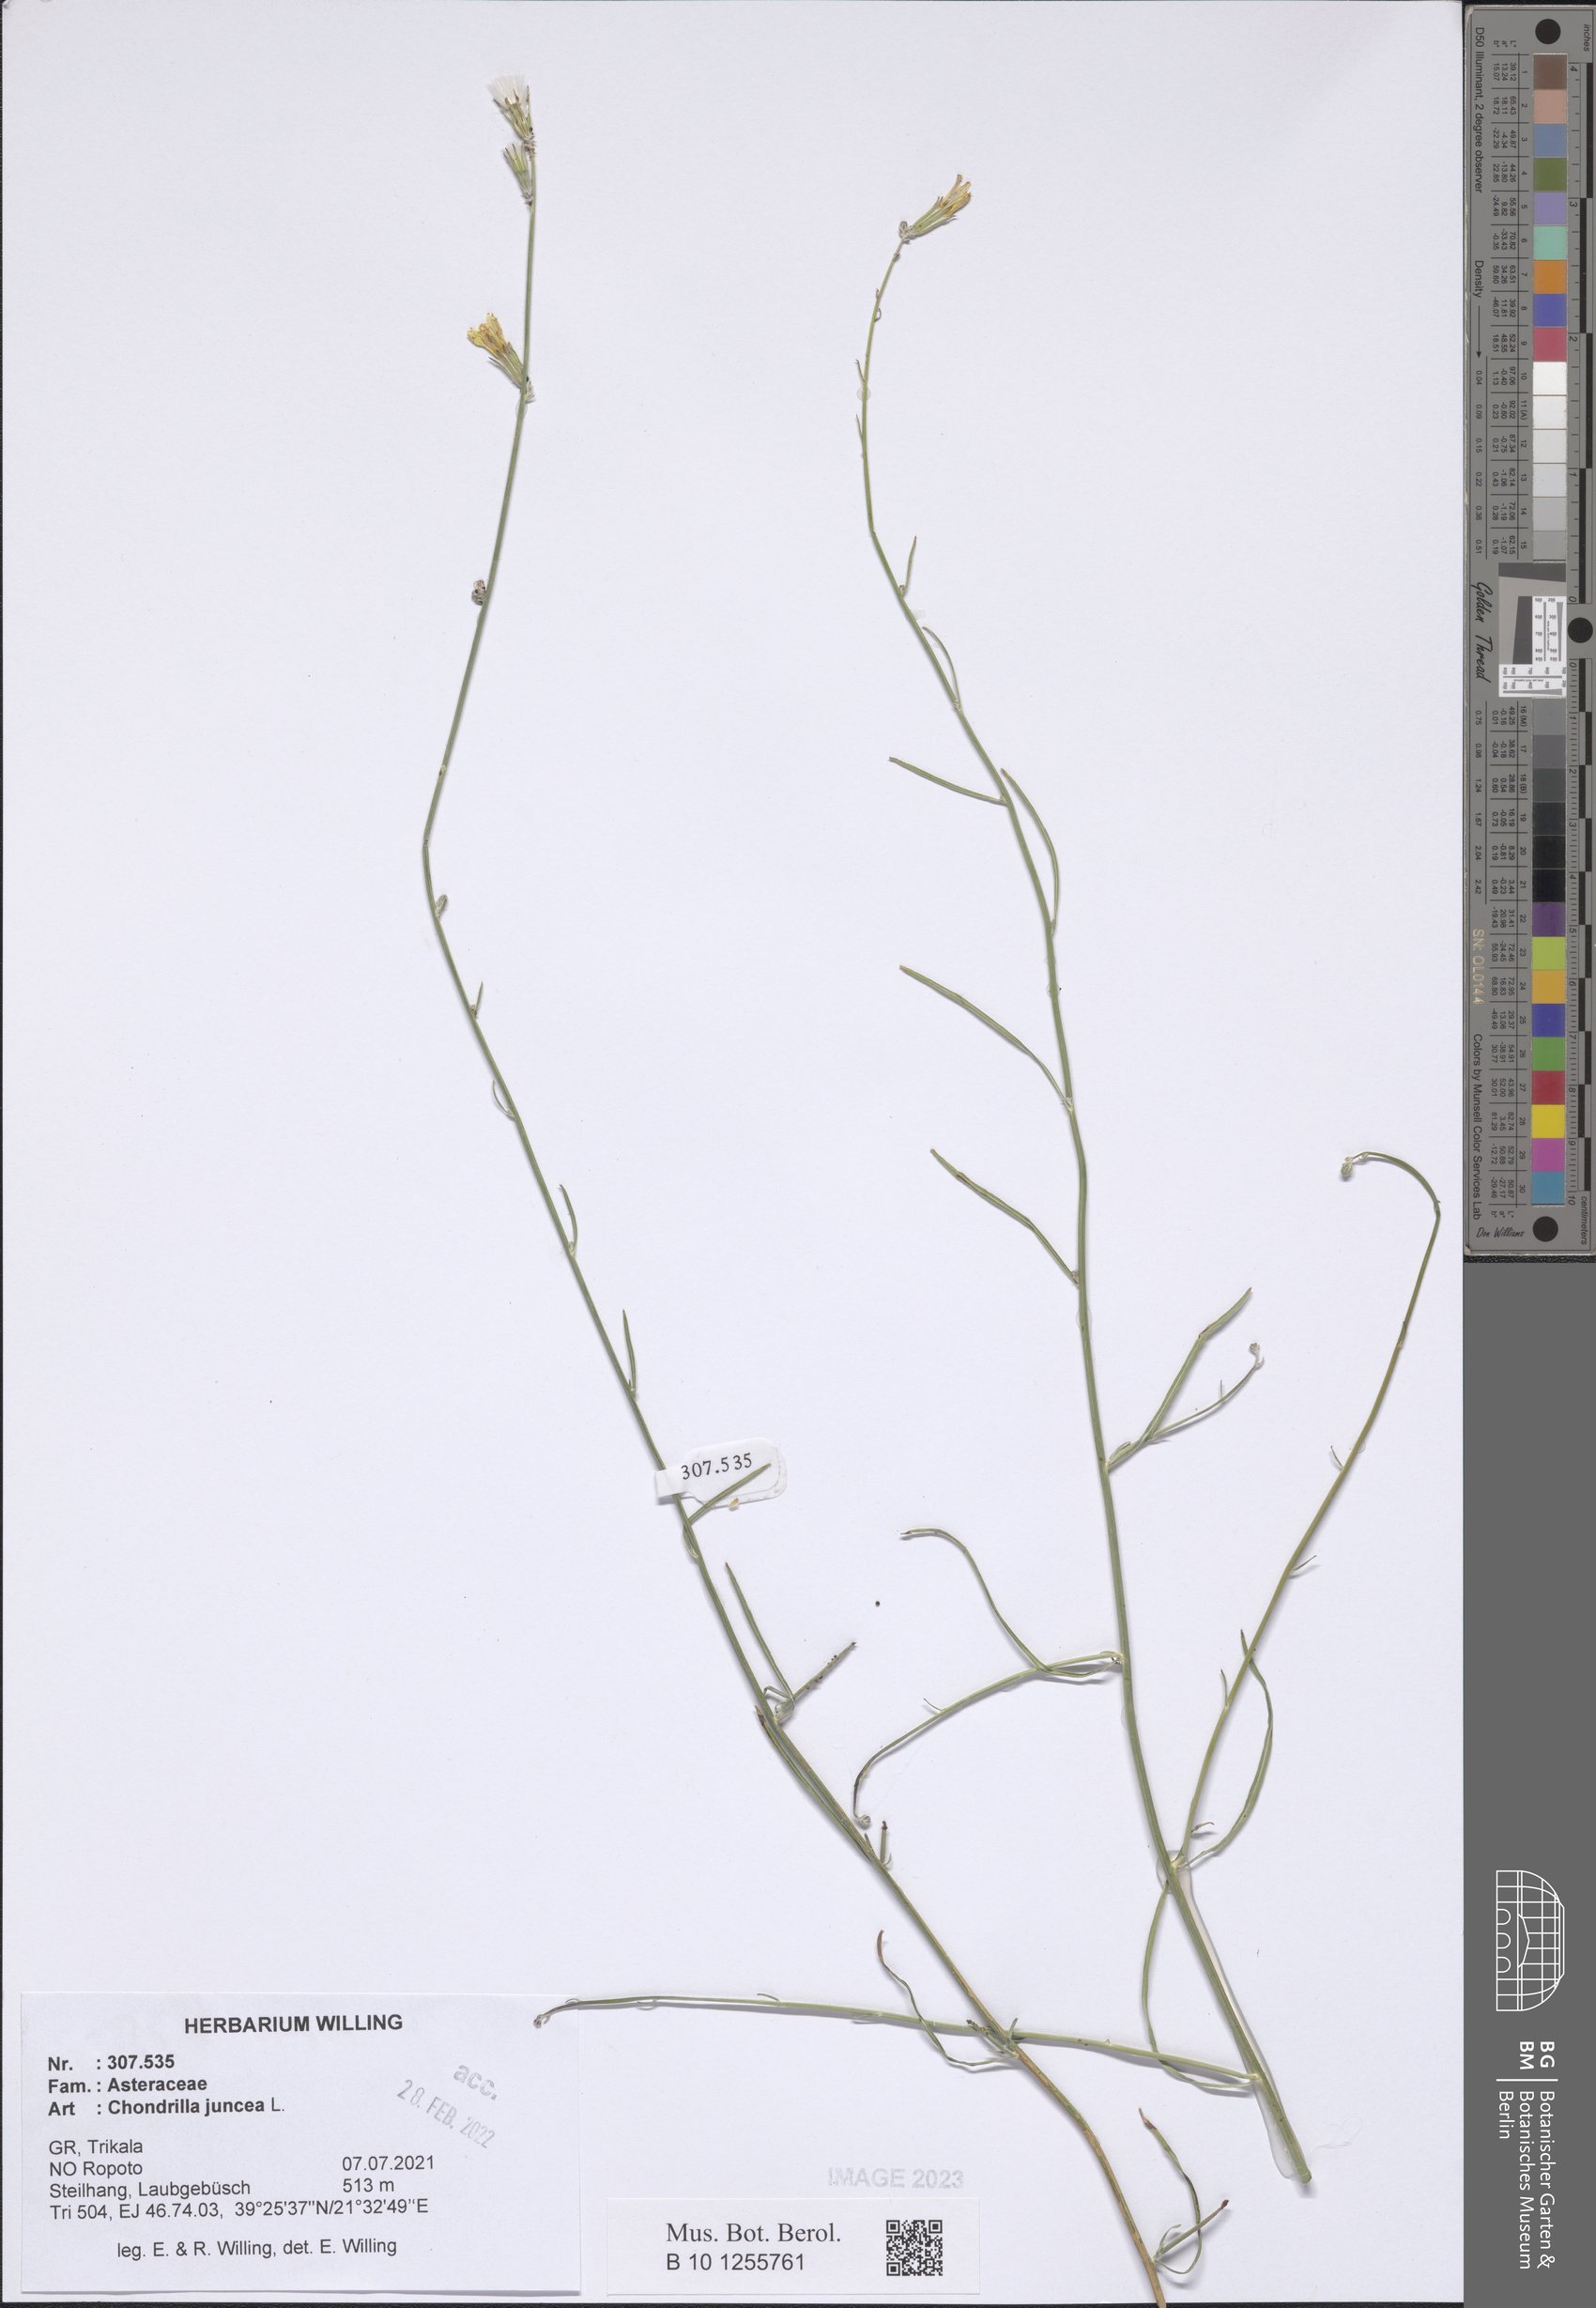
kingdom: Plantae
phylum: Tracheophyta
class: Magnoliopsida
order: Asterales
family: Asteraceae
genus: Chondrilla
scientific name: Chondrilla juncea
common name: Skeleton weed
